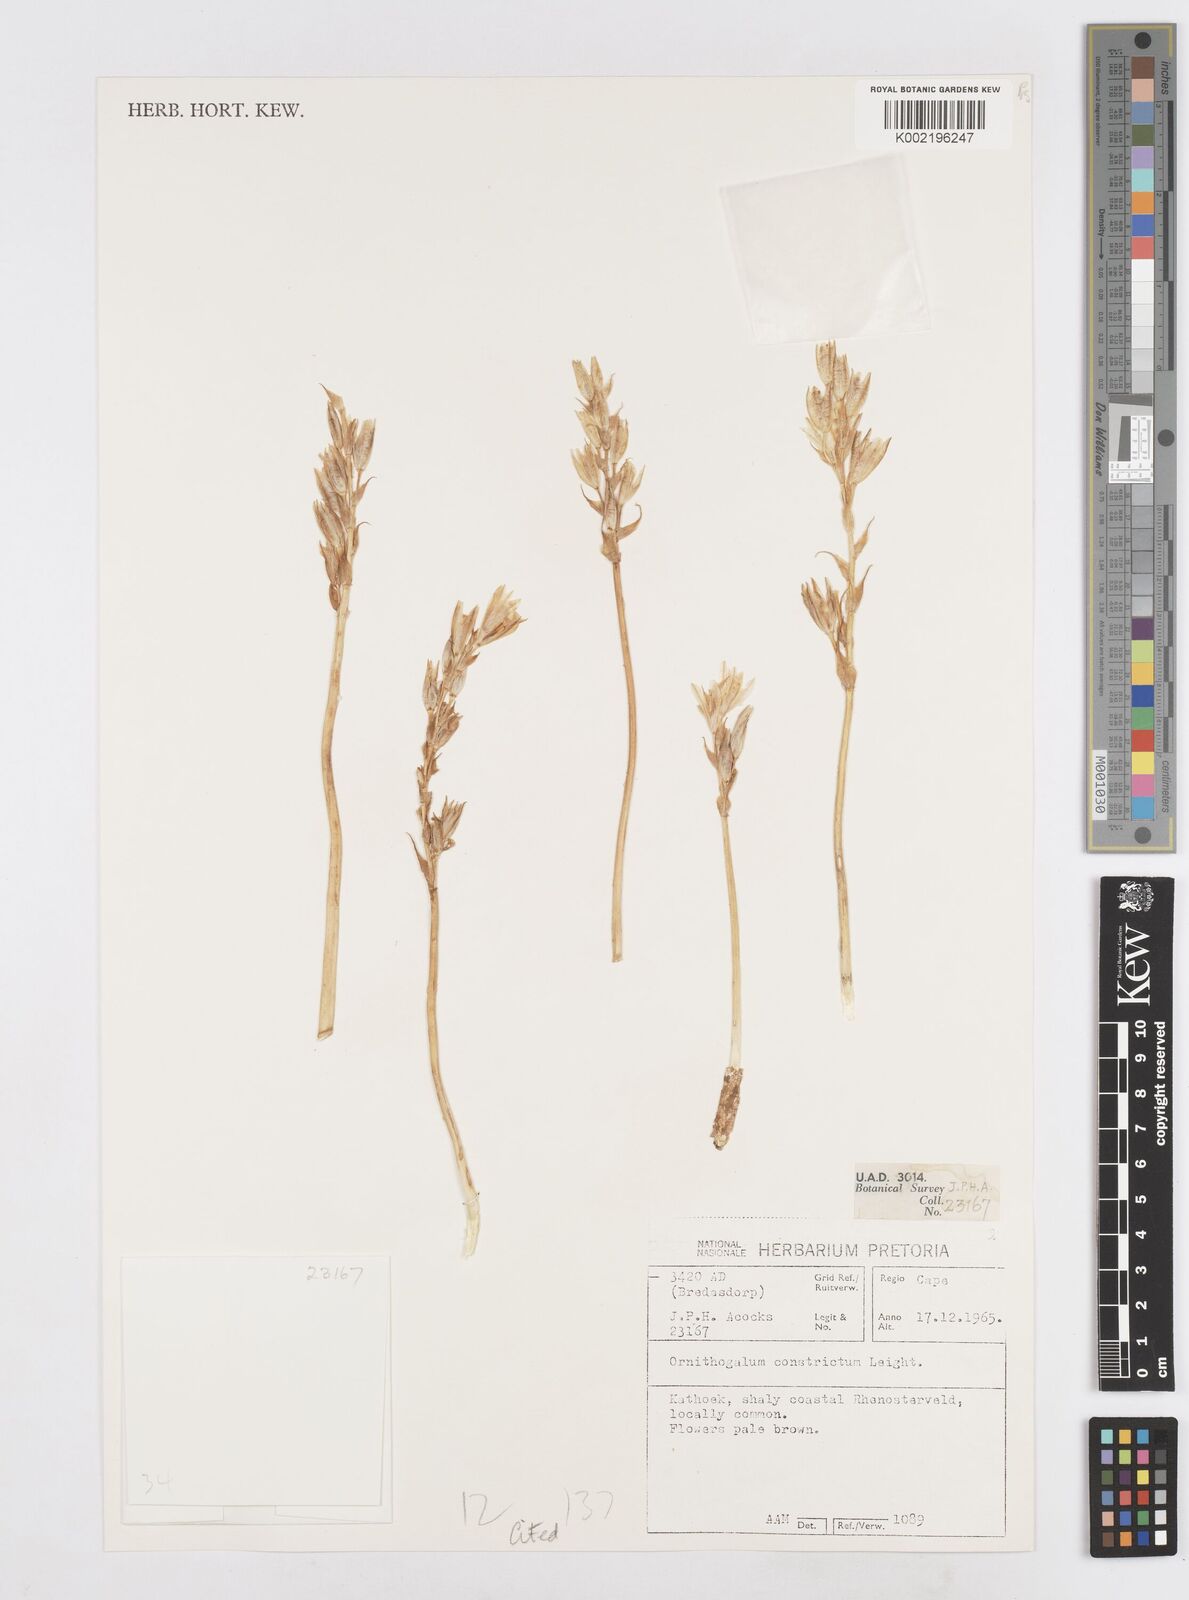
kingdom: Plantae
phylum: Tracheophyta
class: Liliopsida
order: Asparagales
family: Asparagaceae
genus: Ornithogalum
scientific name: Ornithogalum constrictum
